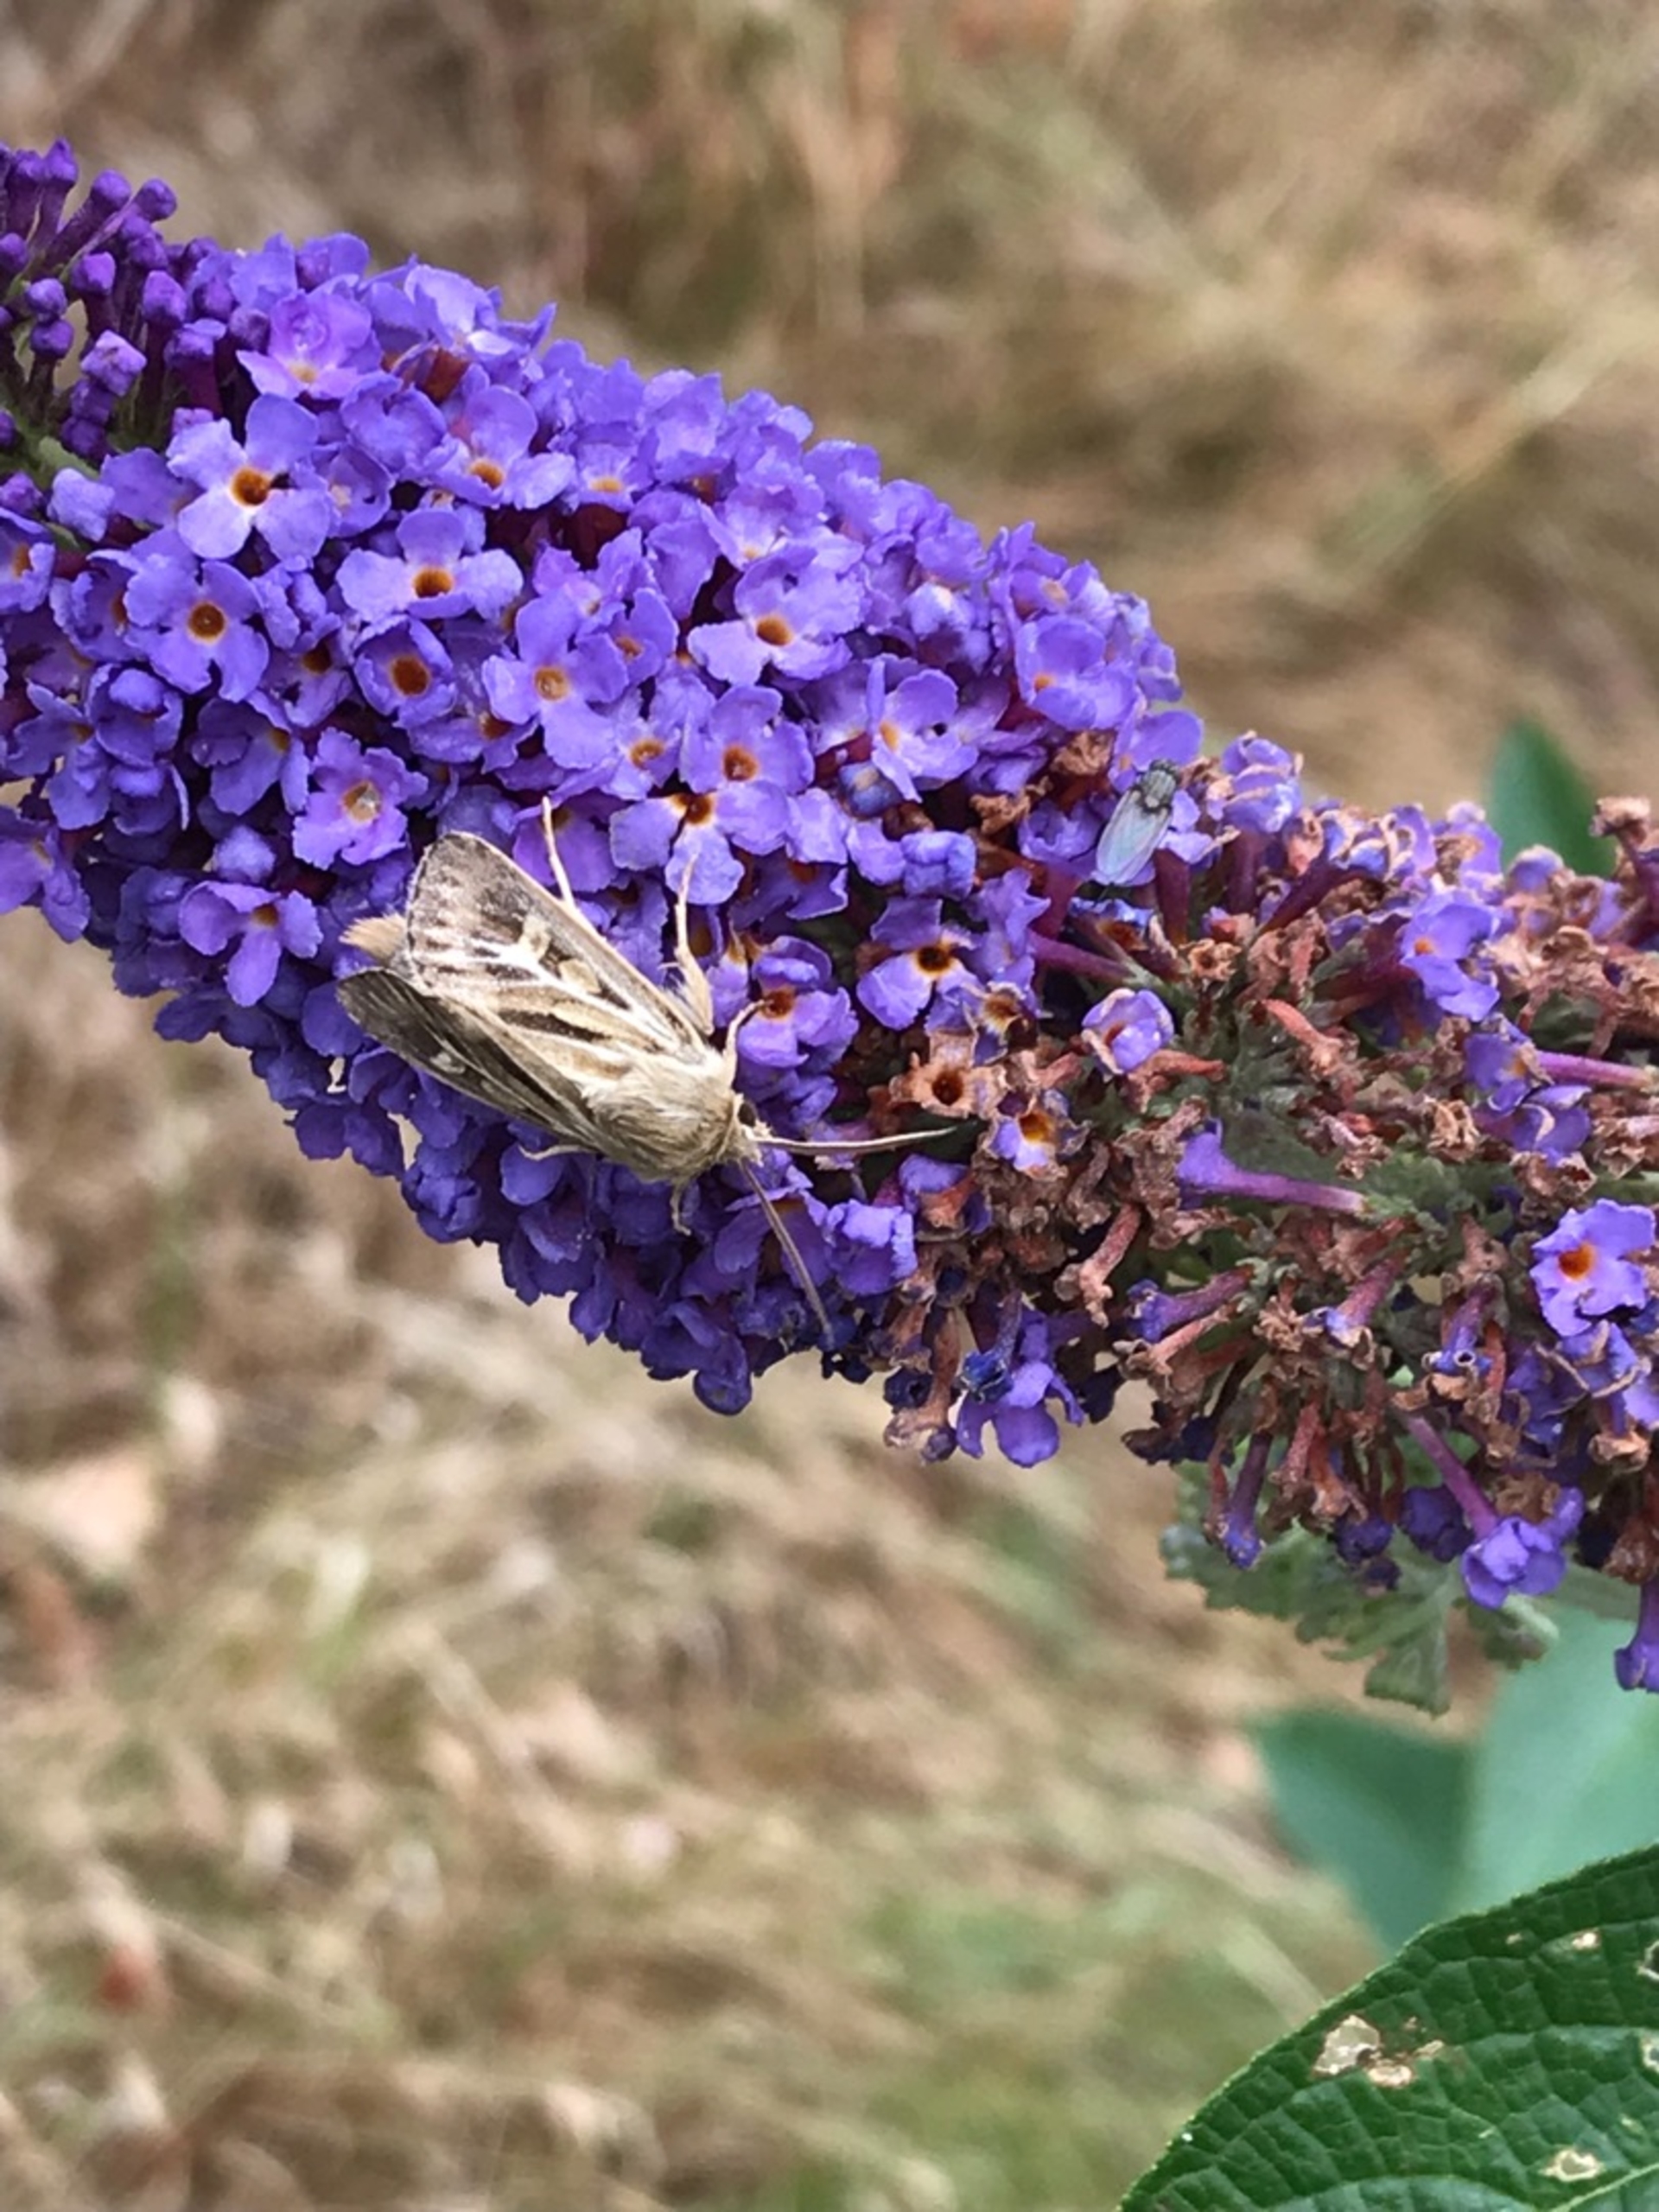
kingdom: Animalia
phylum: Arthropoda
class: Insecta
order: Lepidoptera
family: Noctuidae
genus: Cerapteryx
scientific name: Cerapteryx graminis
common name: Mosebunkeugle
